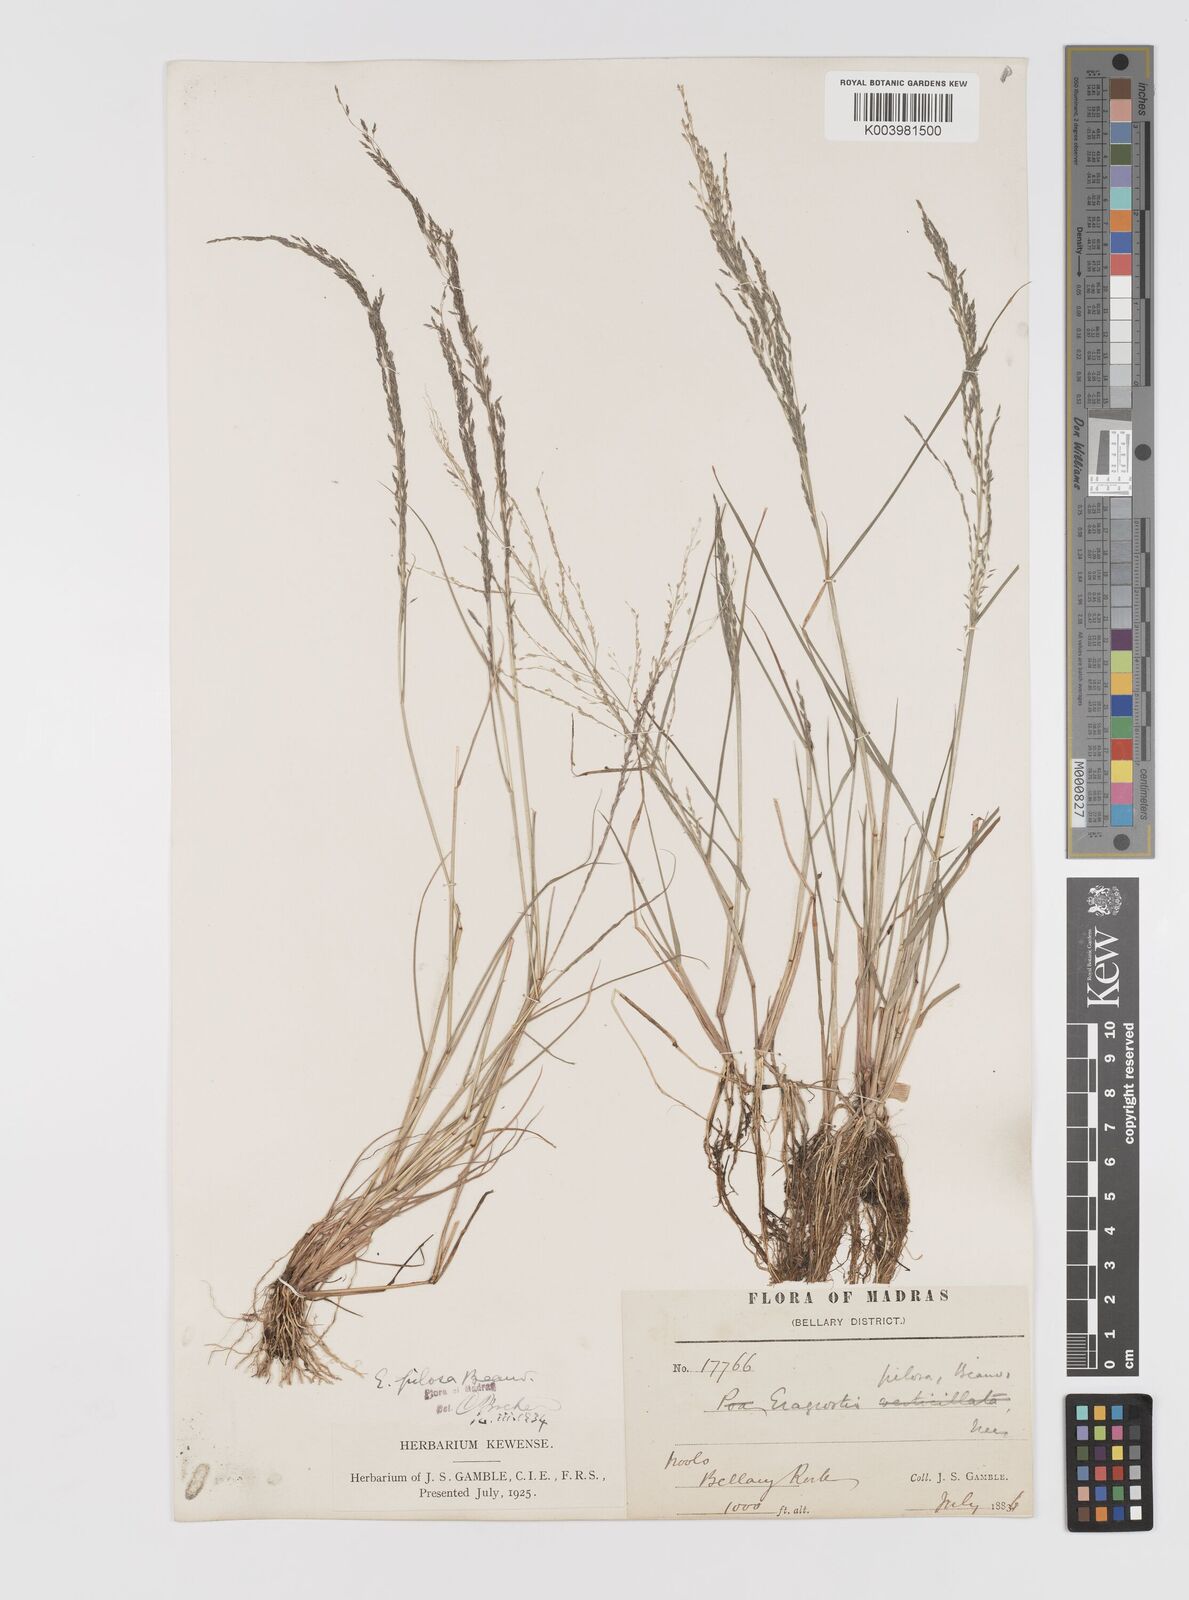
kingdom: Plantae
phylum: Tracheophyta
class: Liliopsida
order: Poales
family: Poaceae
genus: Eragrostis
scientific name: Eragrostis pilosa
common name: Indian lovegrass
